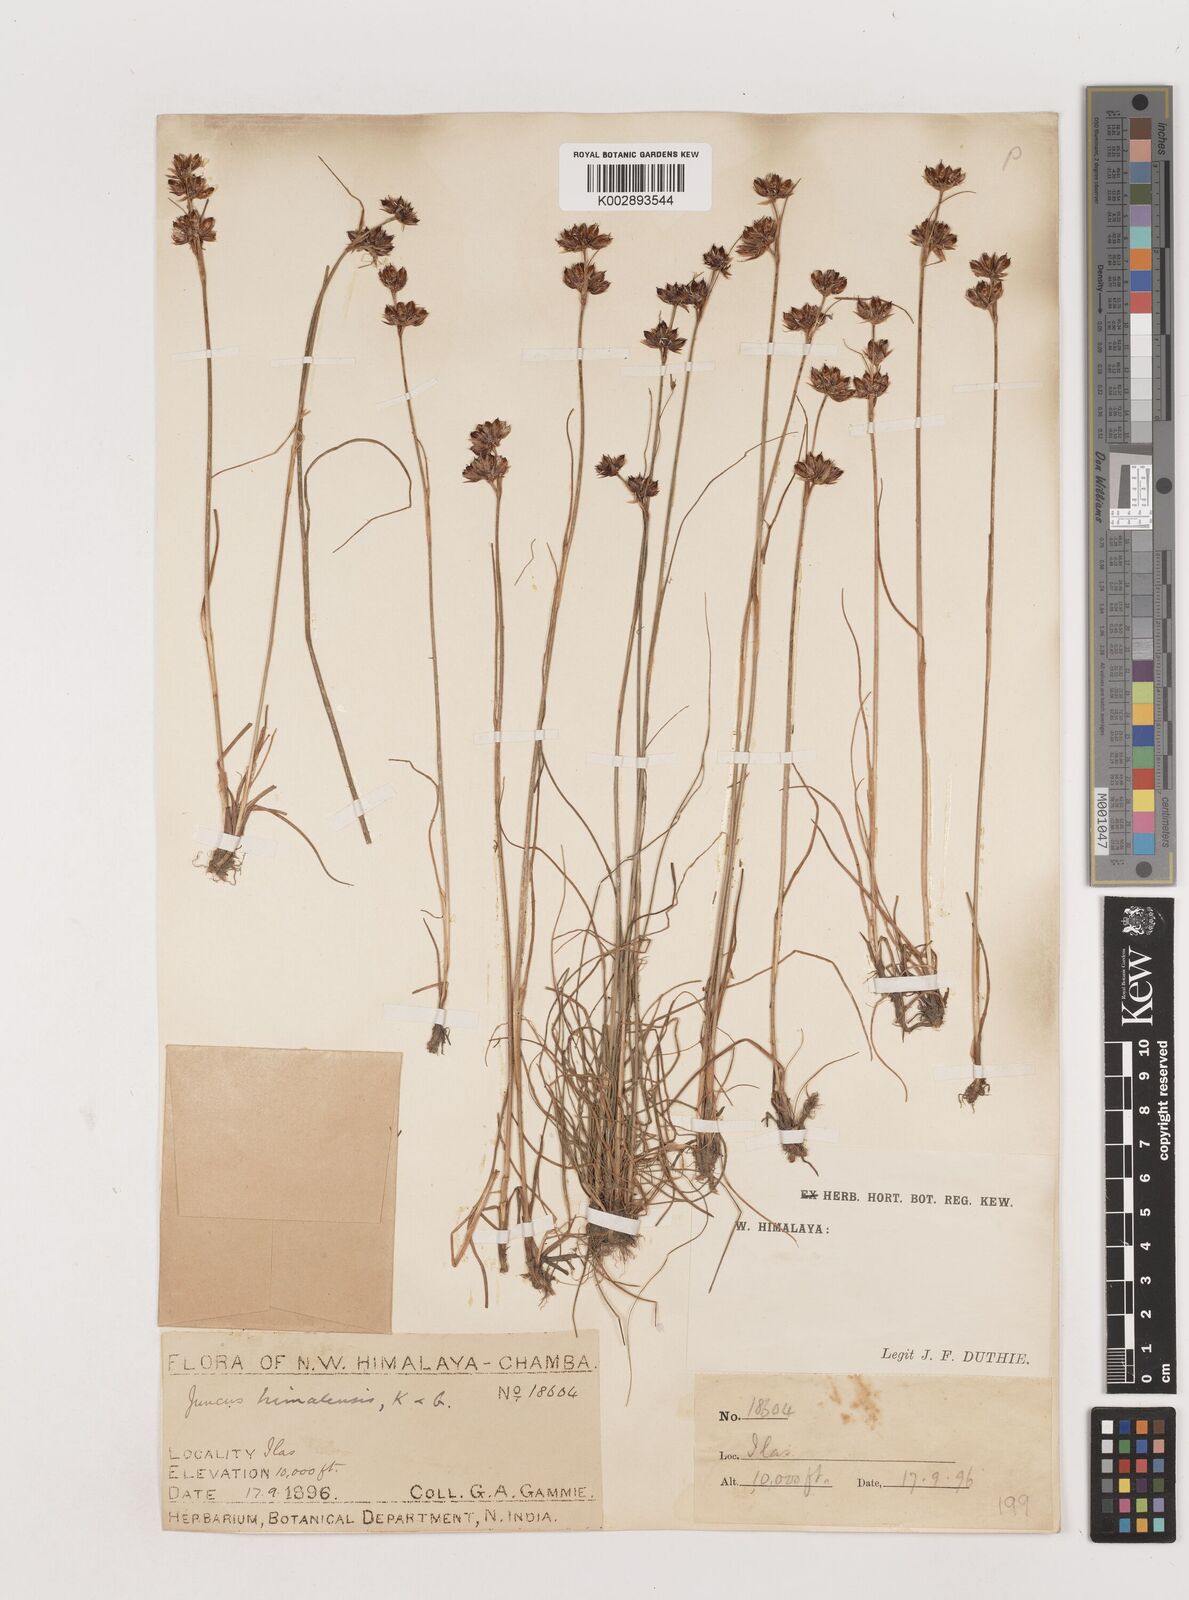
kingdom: Plantae
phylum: Tracheophyta
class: Liliopsida
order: Poales
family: Juncaceae
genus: Juncus
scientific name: Juncus himalensis
